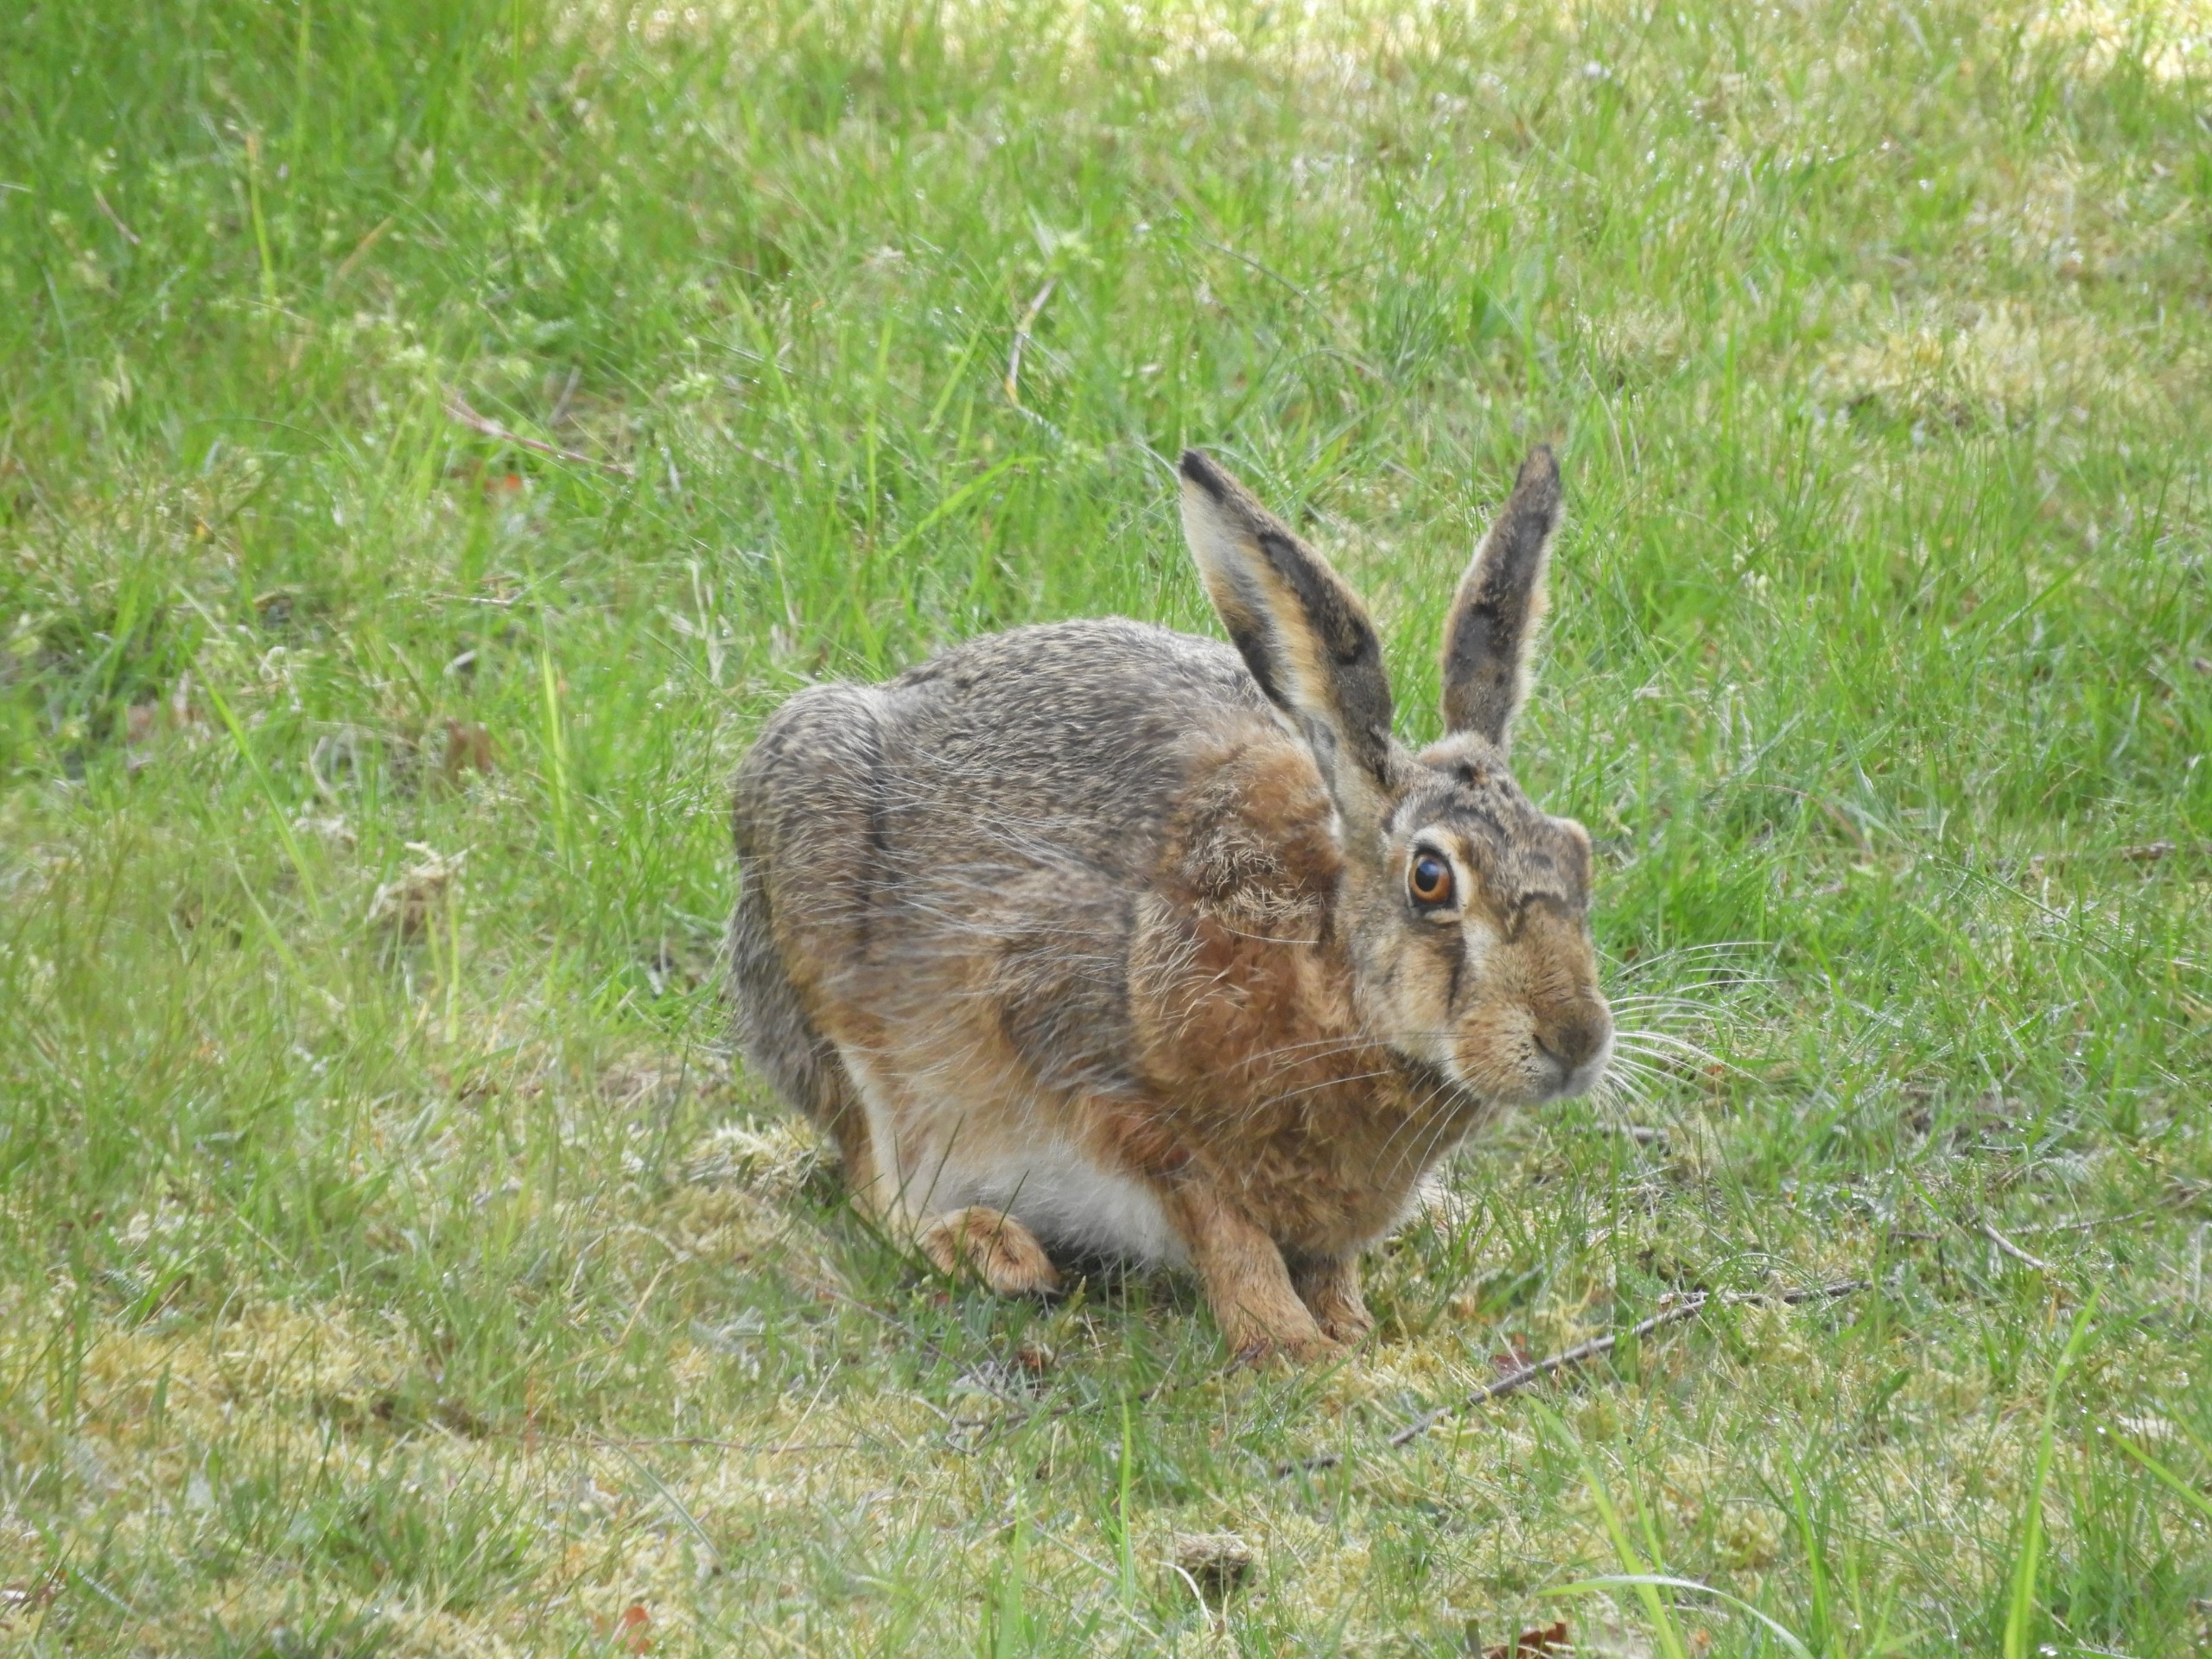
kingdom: Animalia
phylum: Chordata
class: Mammalia
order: Lagomorpha
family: Leporidae
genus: Lepus
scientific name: Lepus europaeus
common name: Hare
